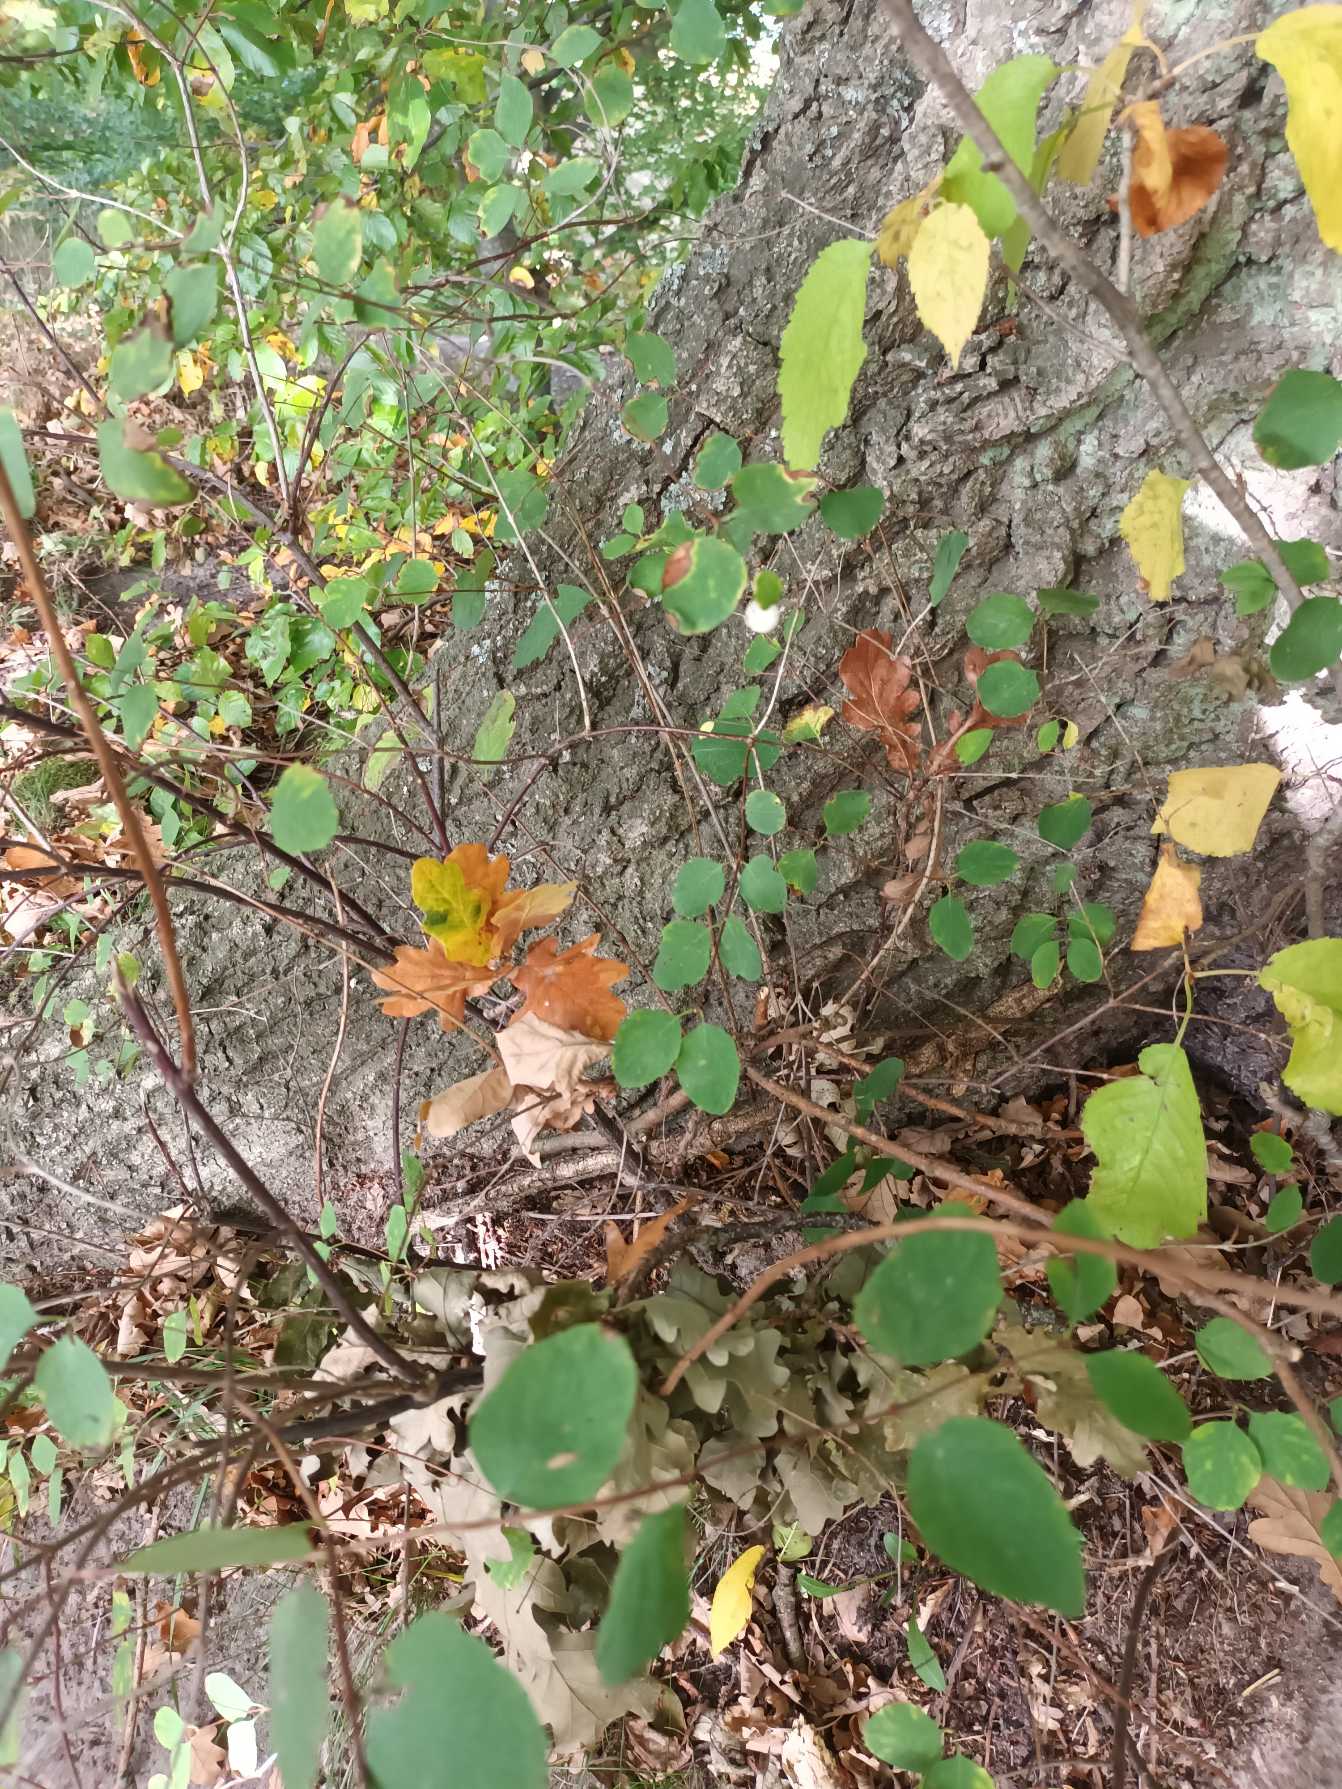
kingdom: Plantae
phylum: Tracheophyta
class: Magnoliopsida
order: Dipsacales
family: Caprifoliaceae
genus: Symphoricarpos
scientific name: Symphoricarpos albus
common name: Almindelig snebær
